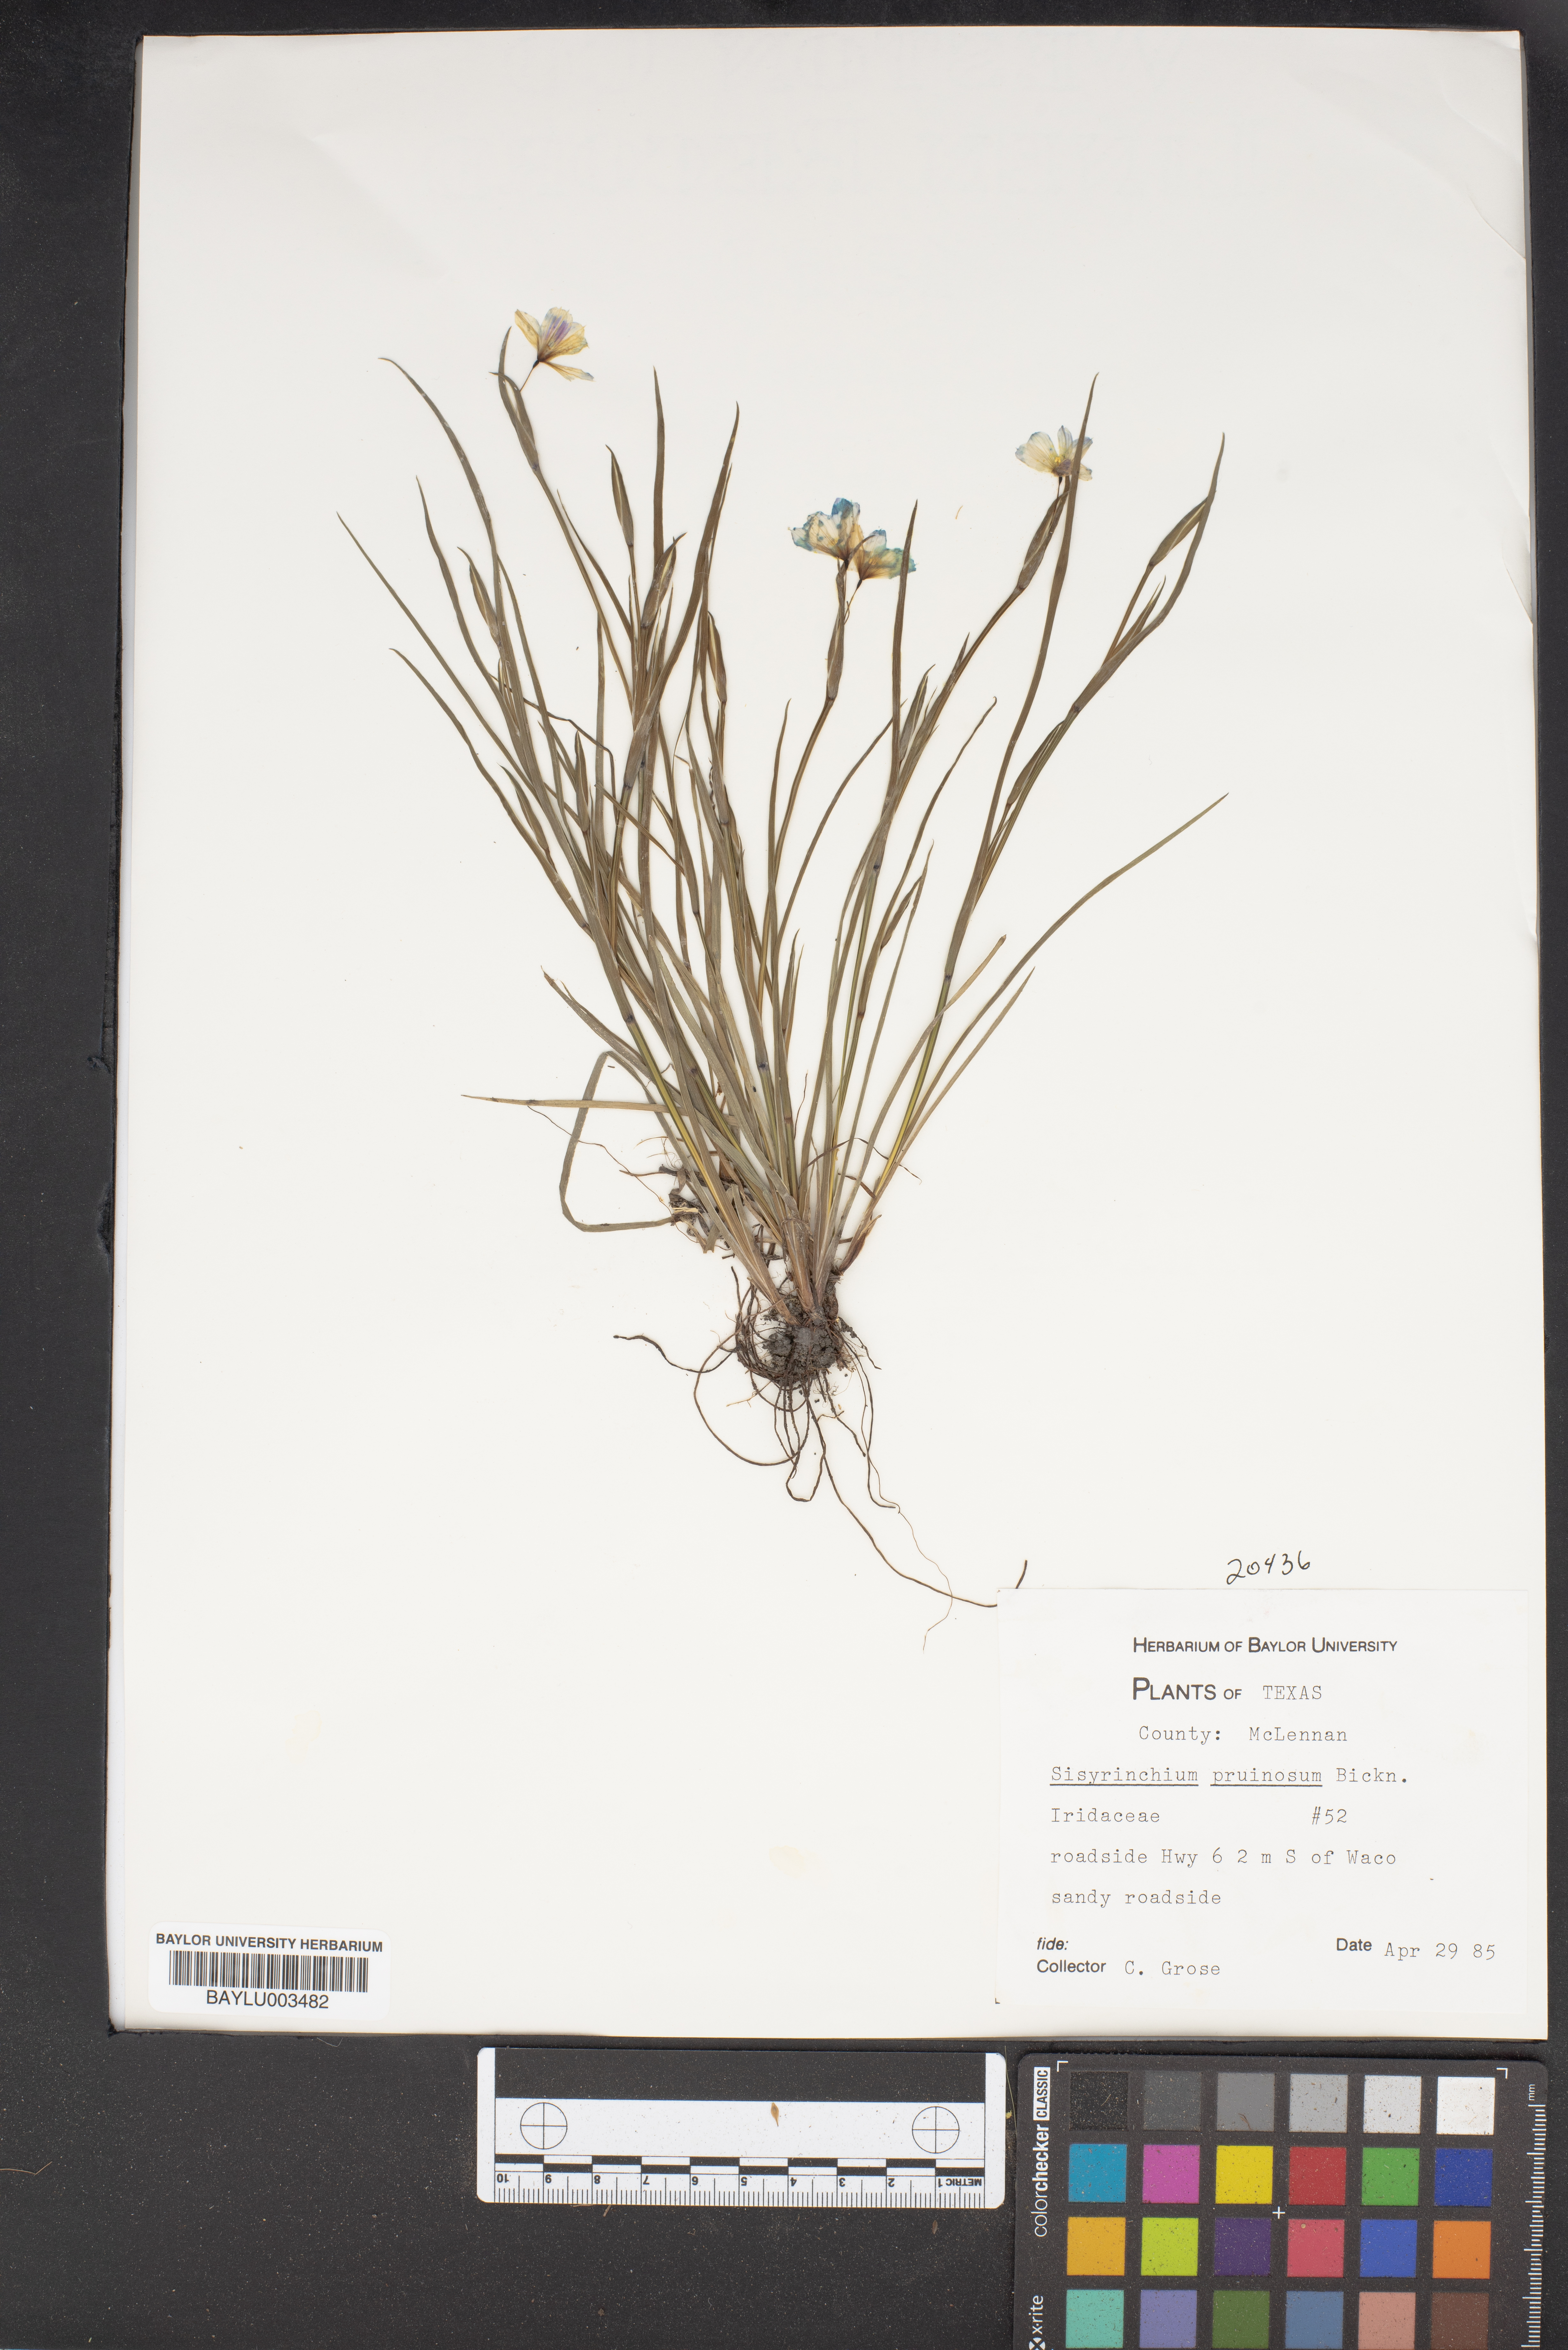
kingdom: Plantae
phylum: Tracheophyta
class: Liliopsida
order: Asparagales
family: Iridaceae
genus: Sisyrinchium
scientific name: Sisyrinchium pruinosum
